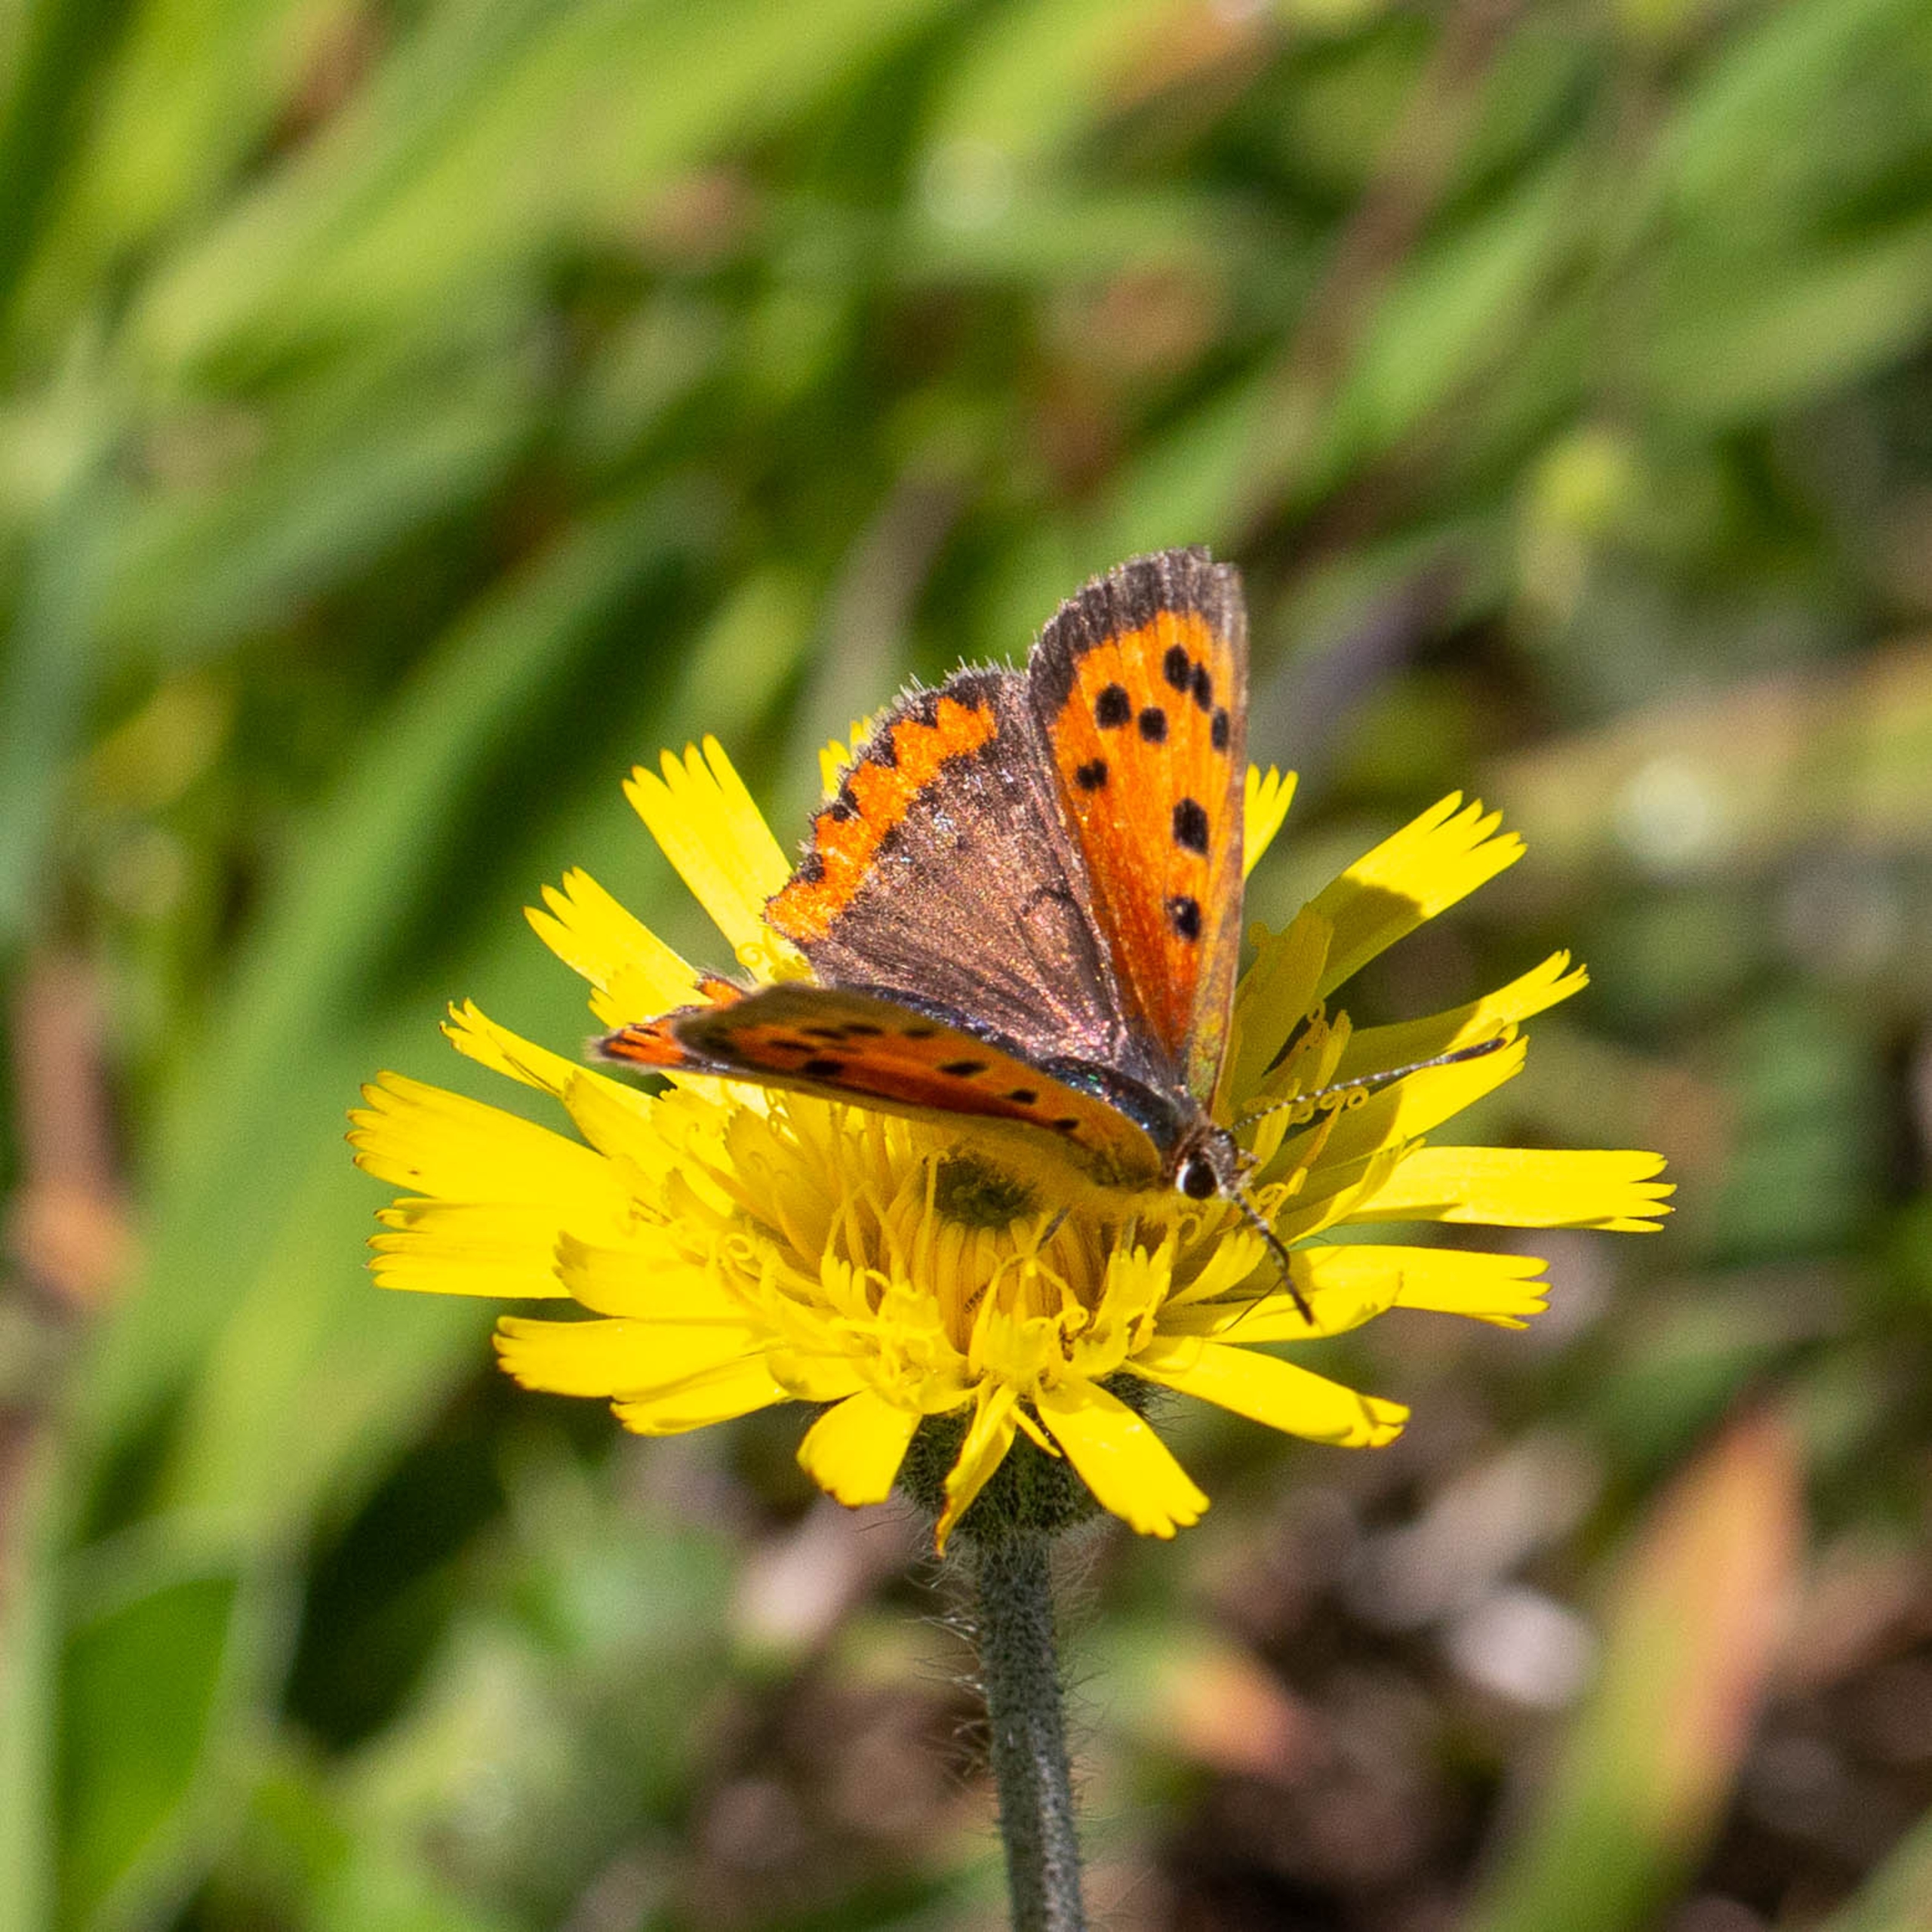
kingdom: Animalia
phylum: Arthropoda
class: Insecta
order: Lepidoptera
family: Lycaenidae
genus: Lycaena
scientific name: Lycaena phlaeas
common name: Lille ildfugl
